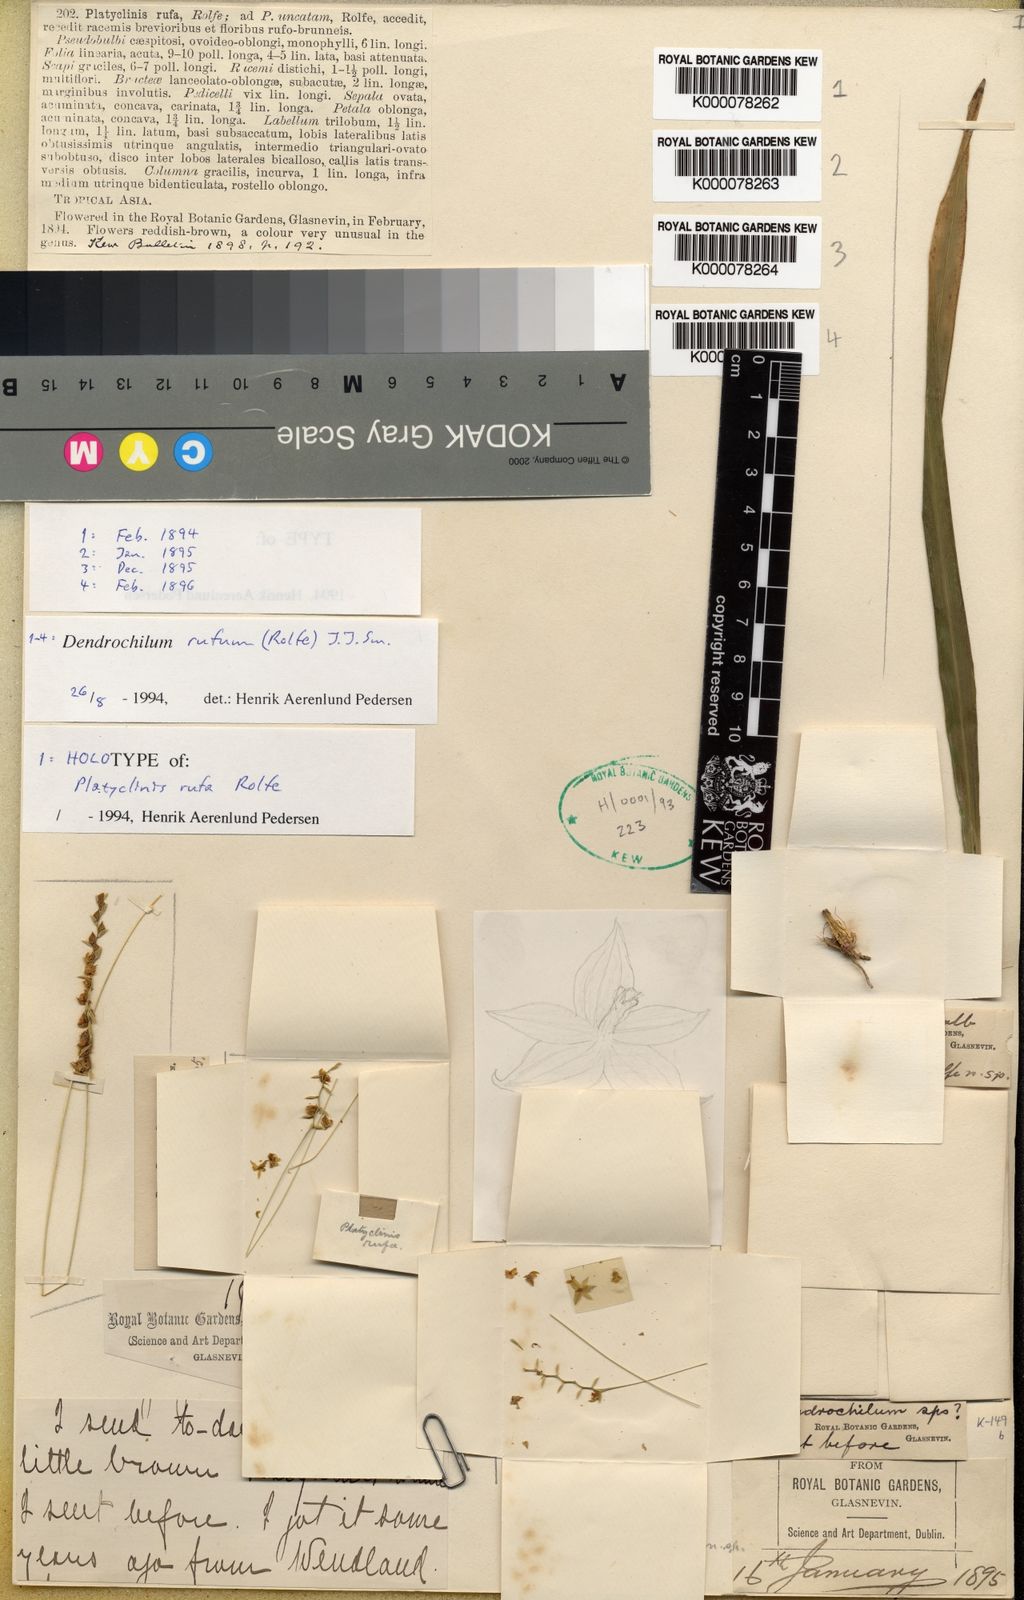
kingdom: Plantae
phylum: Tracheophyta
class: Liliopsida
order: Asparagales
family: Orchidaceae
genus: Coelogyne
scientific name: Coelogyne rufa
